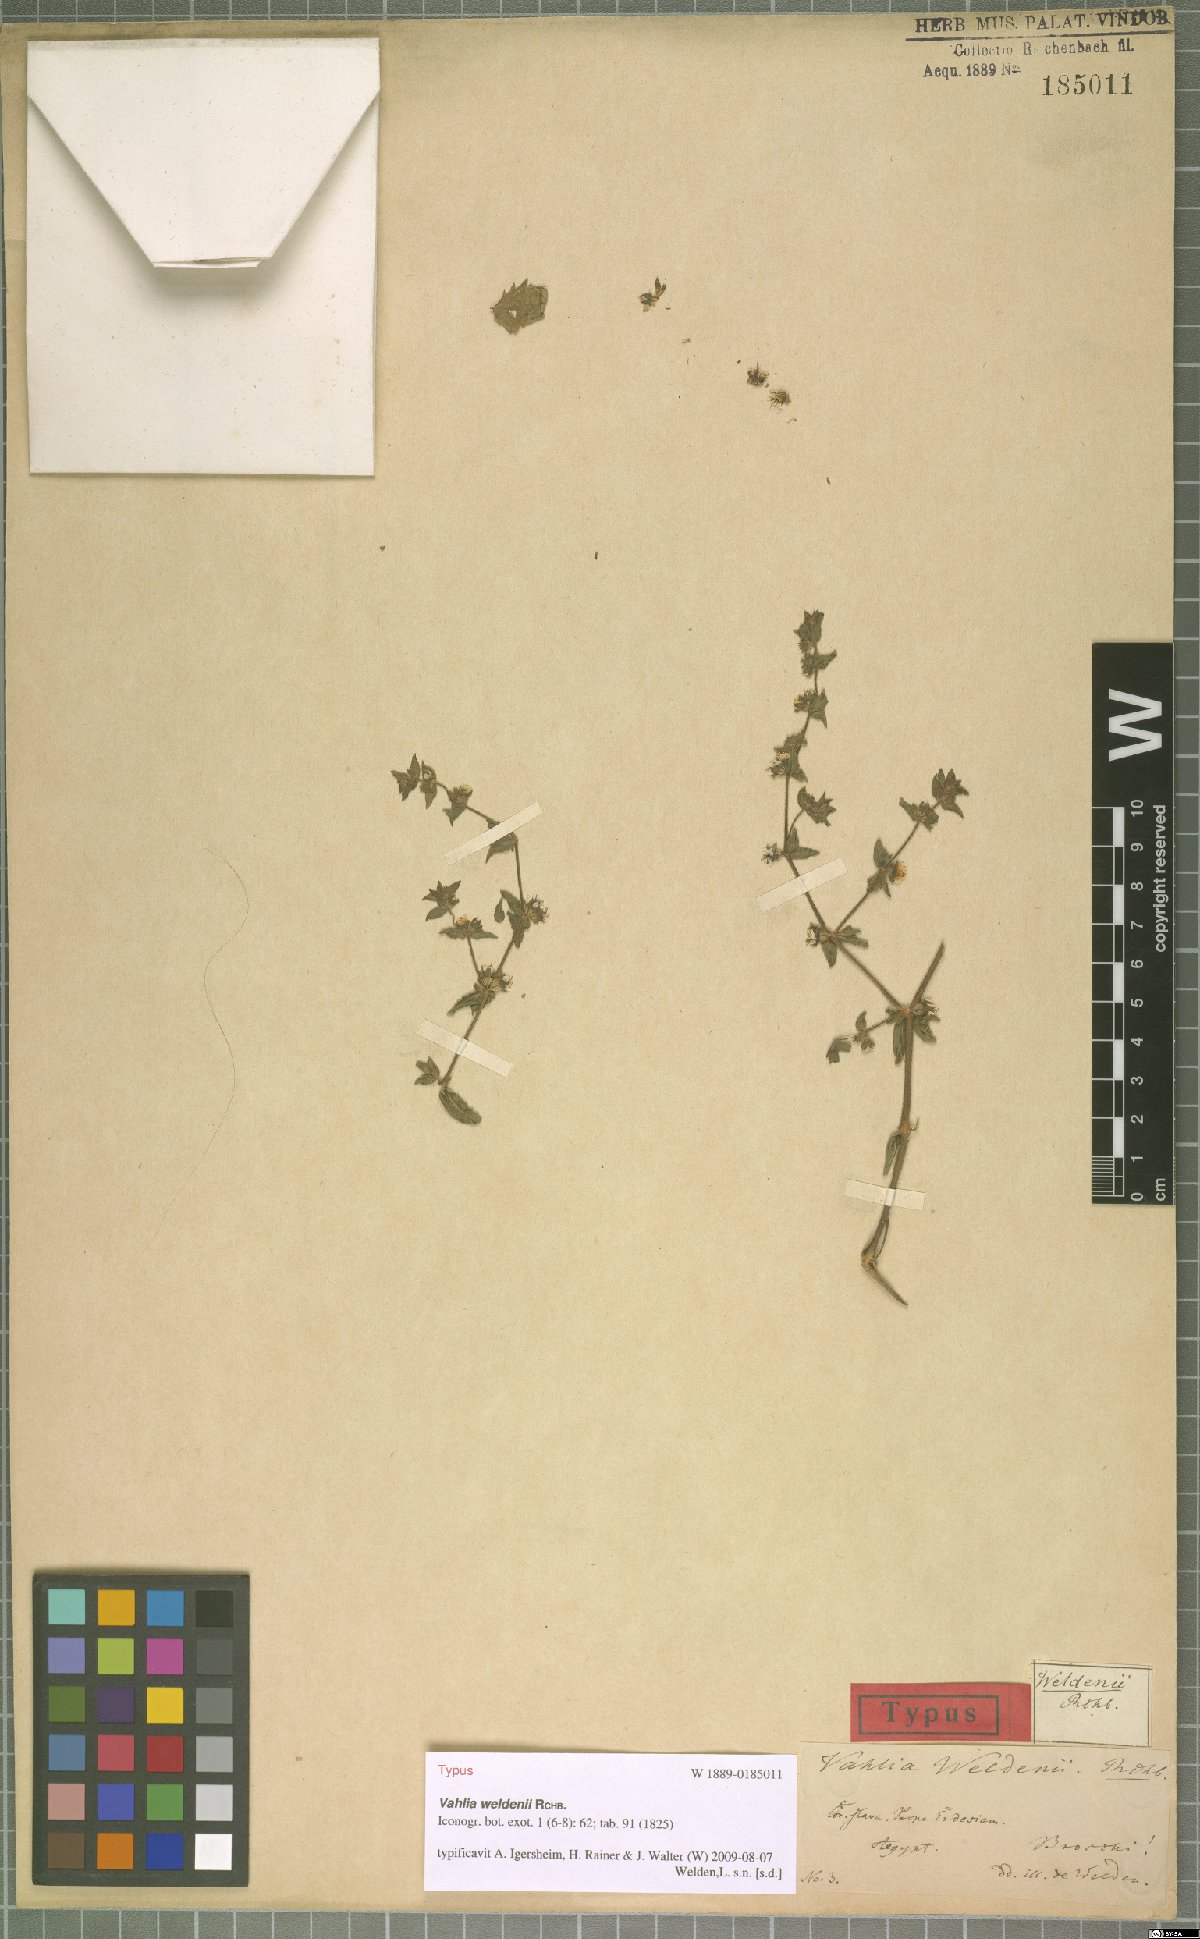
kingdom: Plantae
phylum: Tracheophyta
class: Magnoliopsida
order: Vahliales
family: Vahliaceae
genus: Vahlia
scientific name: Vahlia
